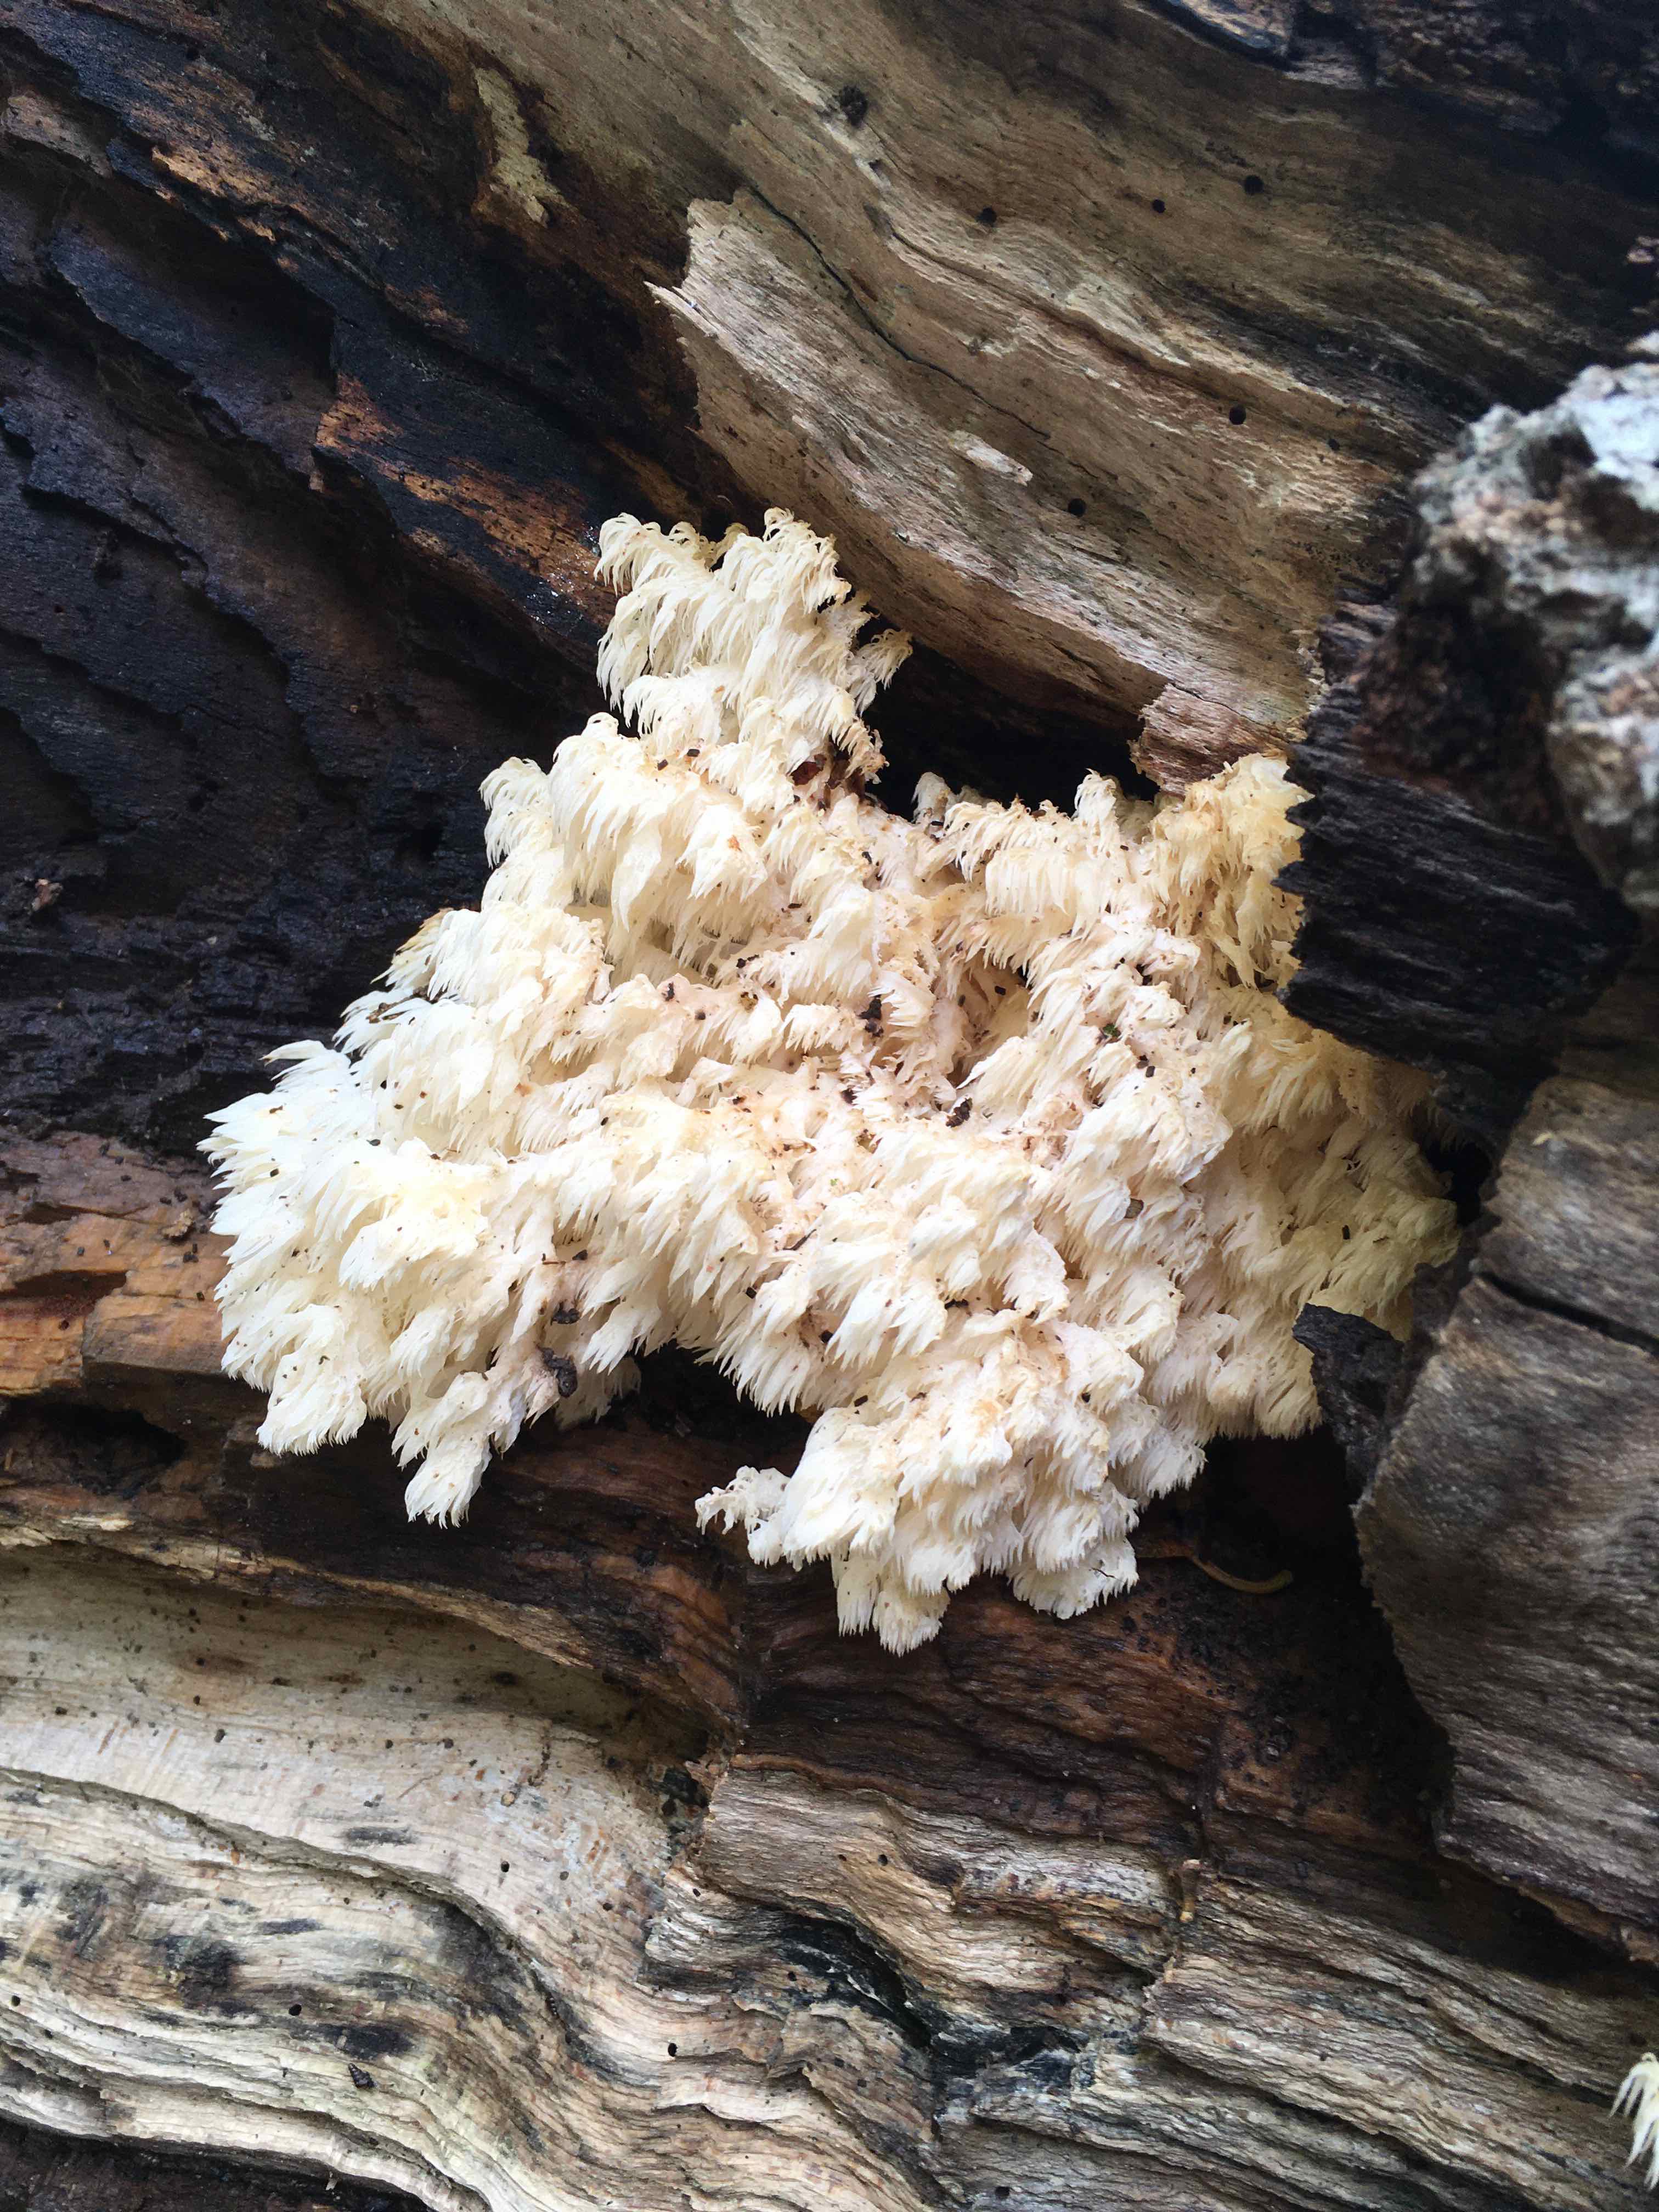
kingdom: Fungi
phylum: Basidiomycota
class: Agaricomycetes
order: Russulales
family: Hericiaceae
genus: Hericium
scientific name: Hericium coralloides
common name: koralpigsvamp
